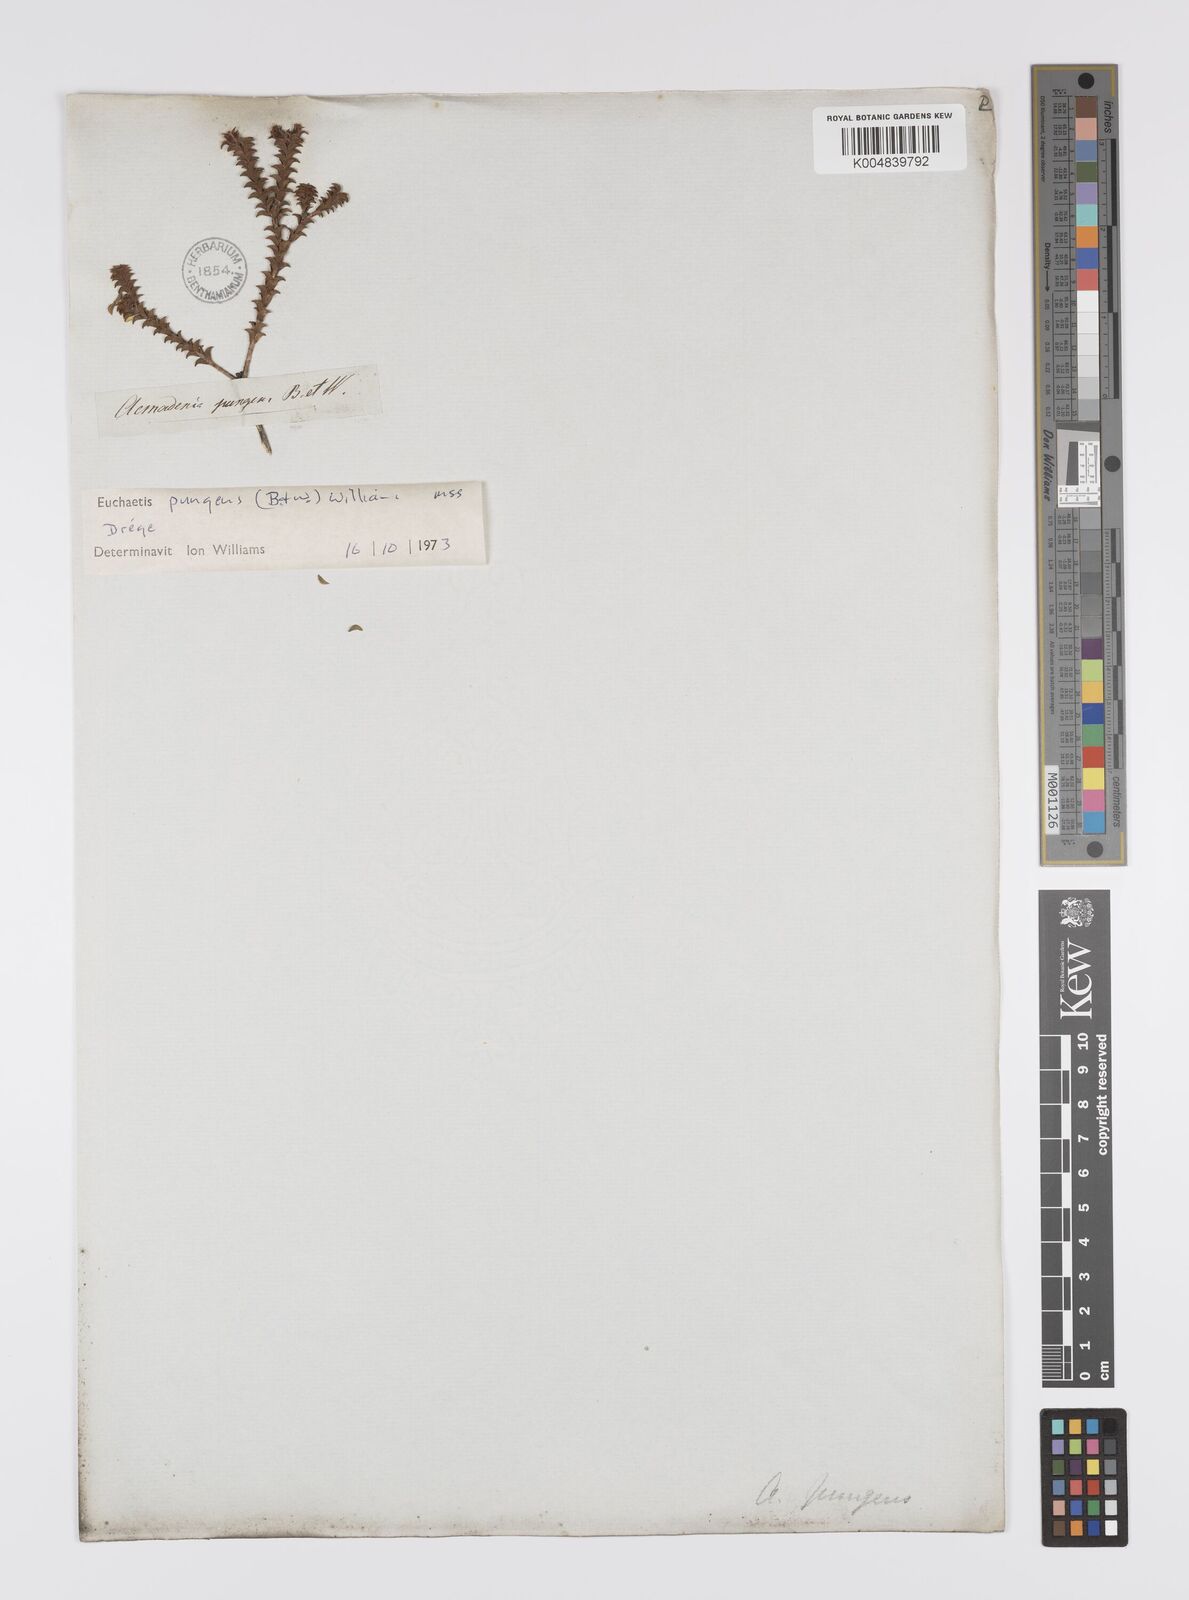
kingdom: Plantae
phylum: Tracheophyta
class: Magnoliopsida
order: Sapindales
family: Rutaceae
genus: Euchaetis
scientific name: Euchaetis pungens
